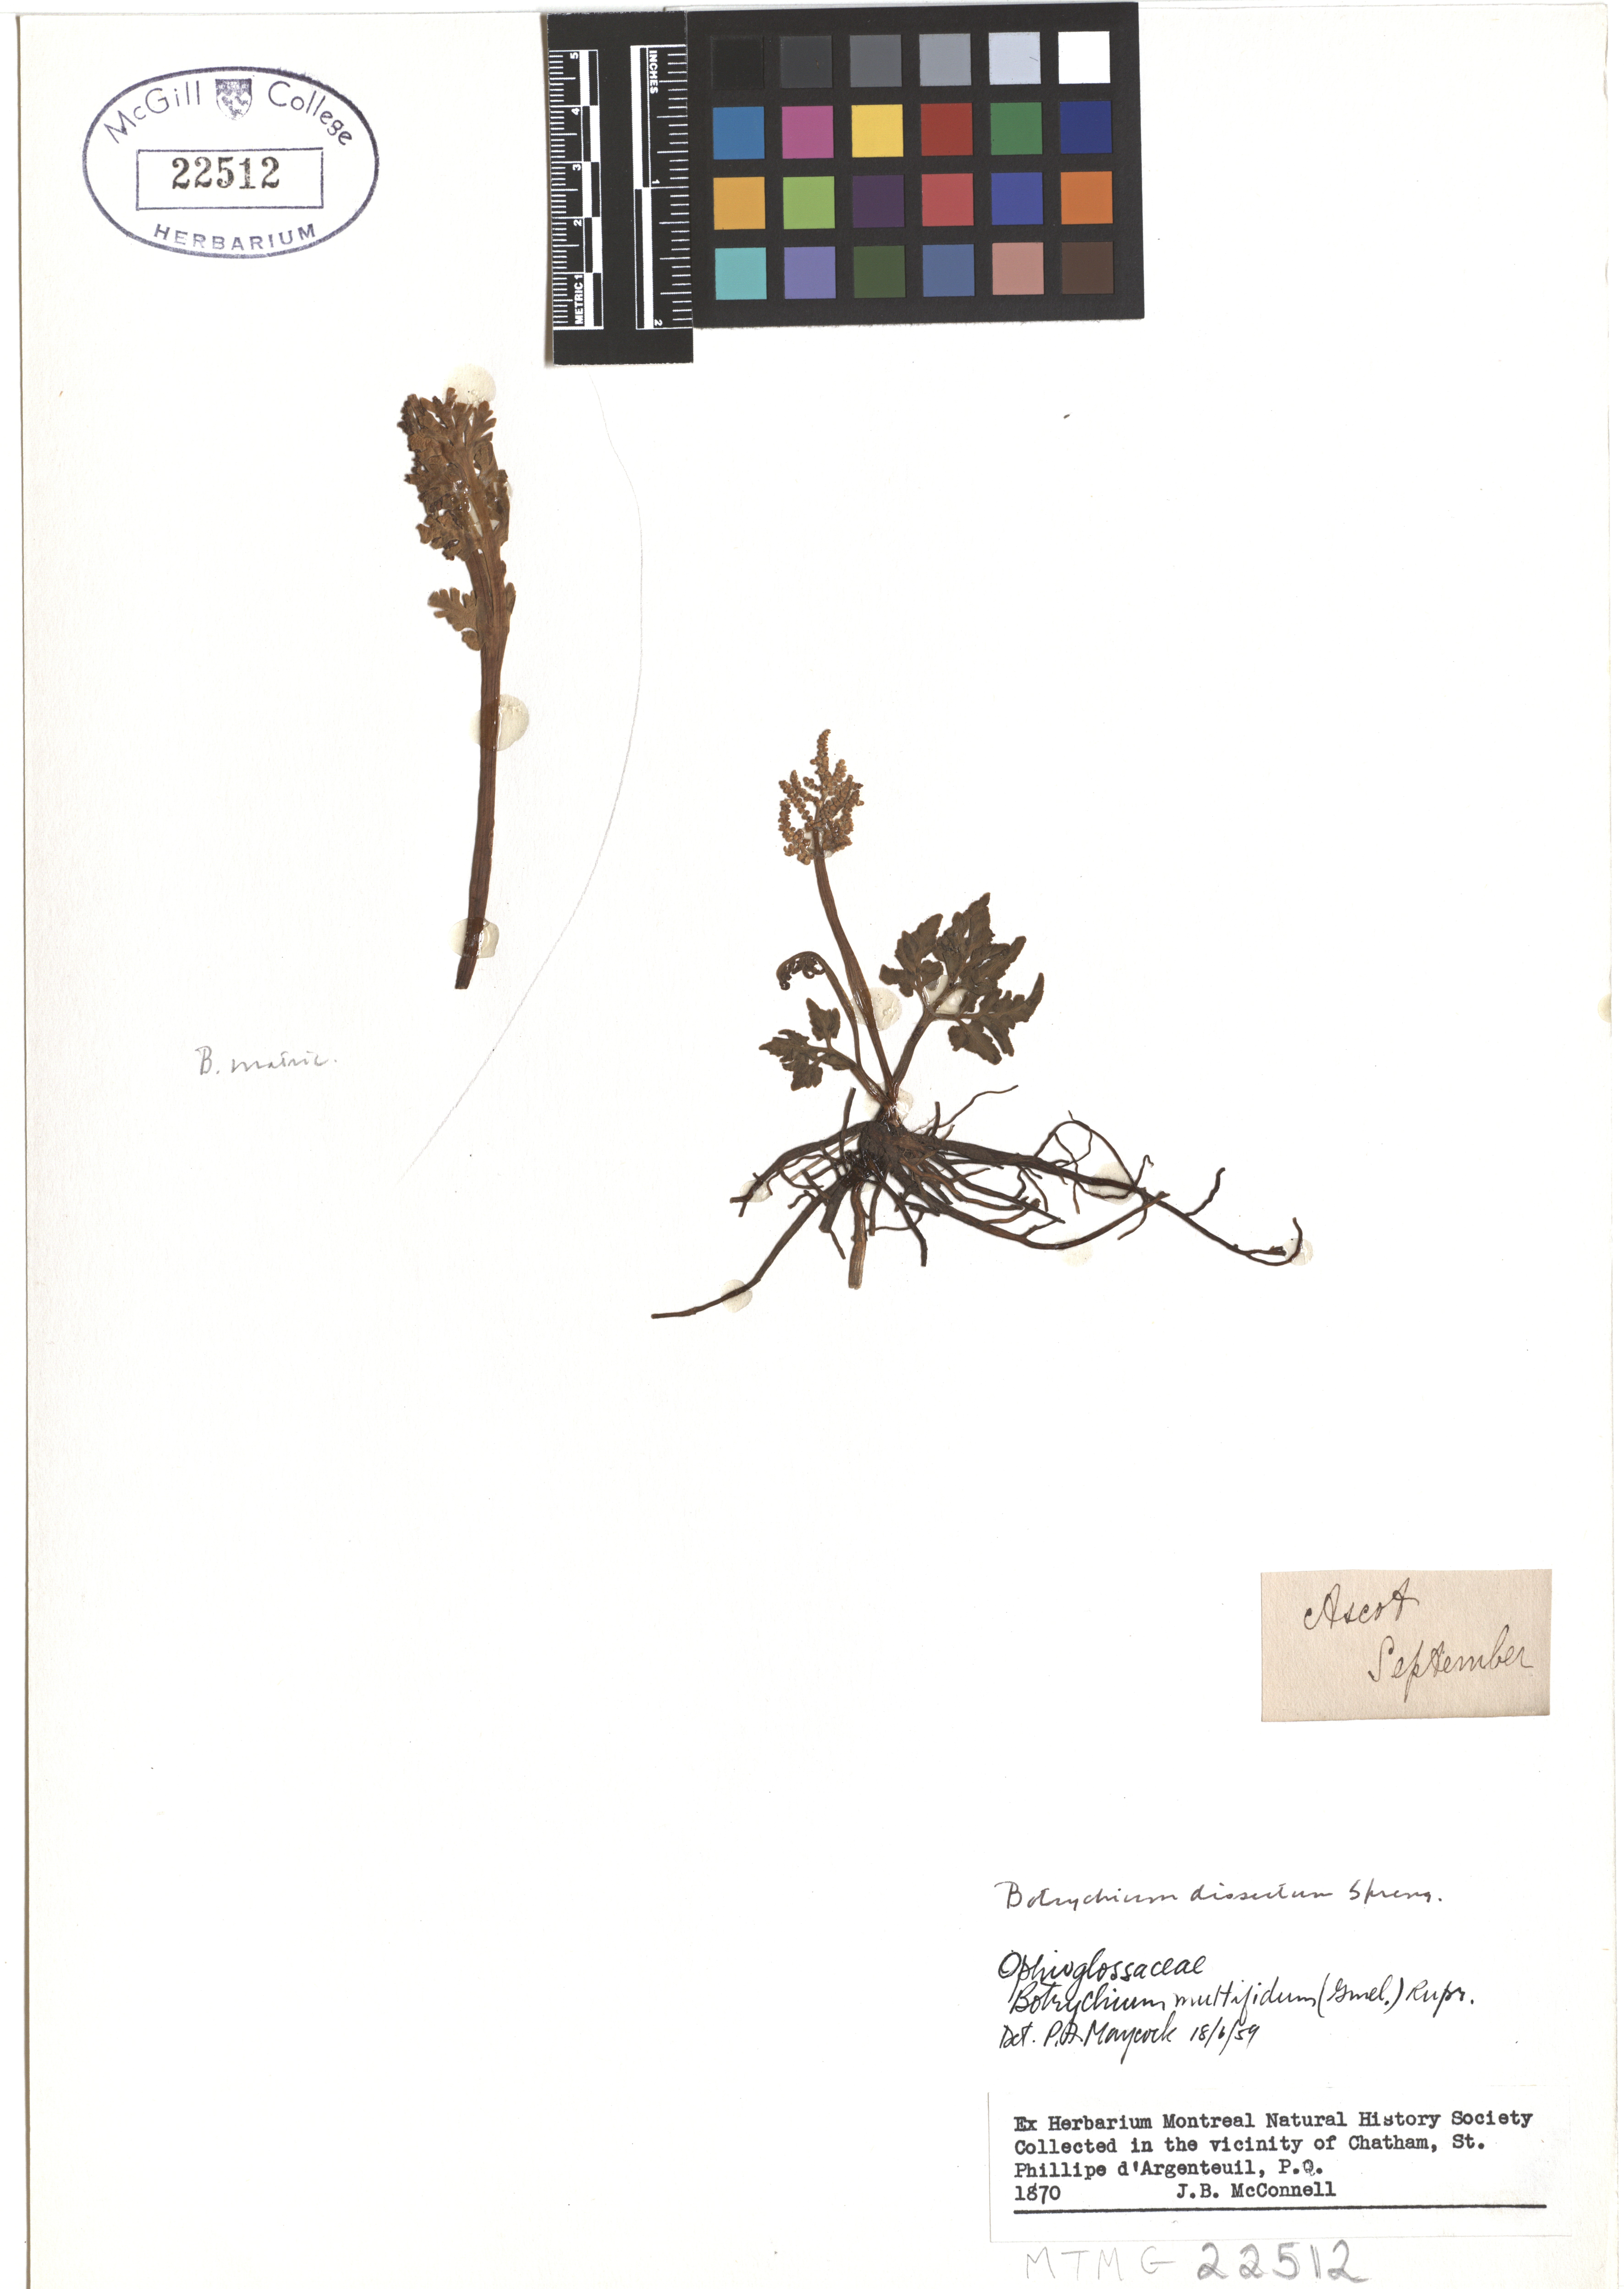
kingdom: Plantae
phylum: Tracheophyta
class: Polypodiopsida
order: Ophioglossales
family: Ophioglossaceae
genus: Sceptridium
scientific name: Sceptridium dissectum
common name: Cut-leaved grapefern
